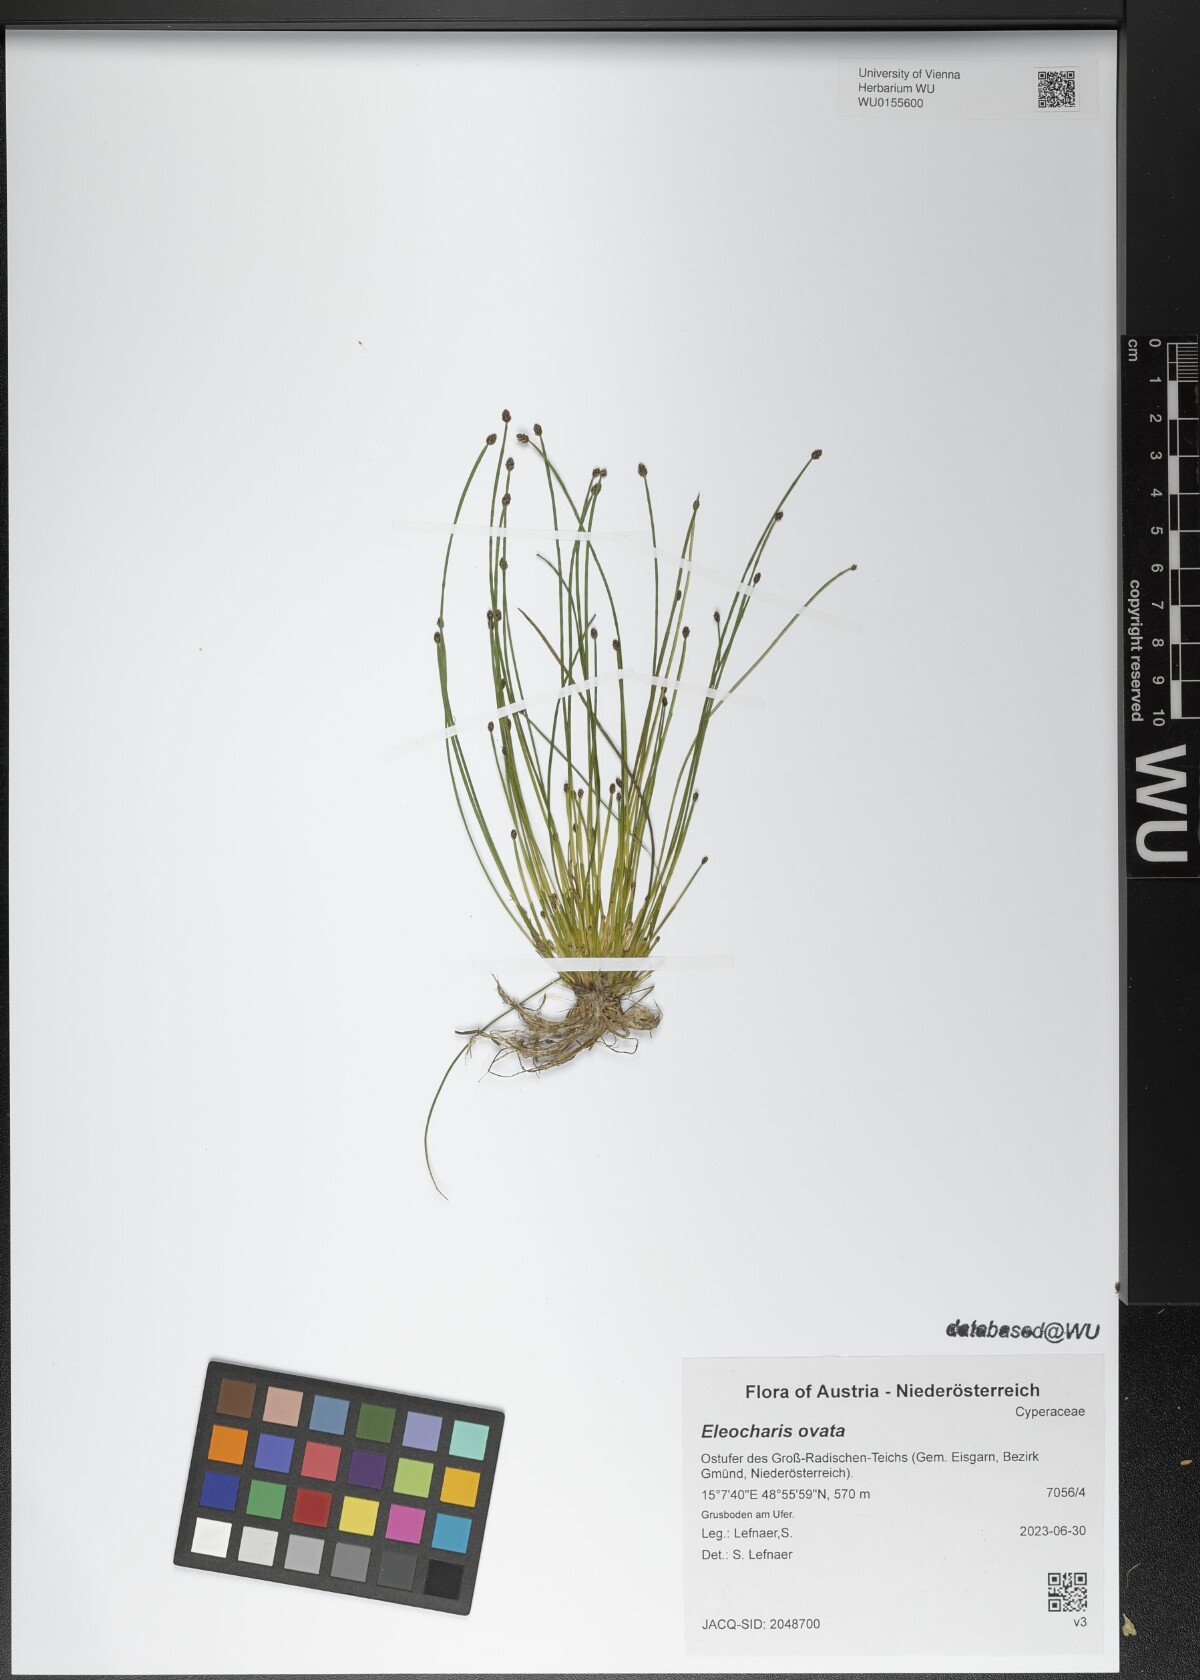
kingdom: Plantae
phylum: Tracheophyta
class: Liliopsida
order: Poales
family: Cyperaceae
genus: Eleocharis
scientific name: Eleocharis ovata
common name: Oval spike-rush
